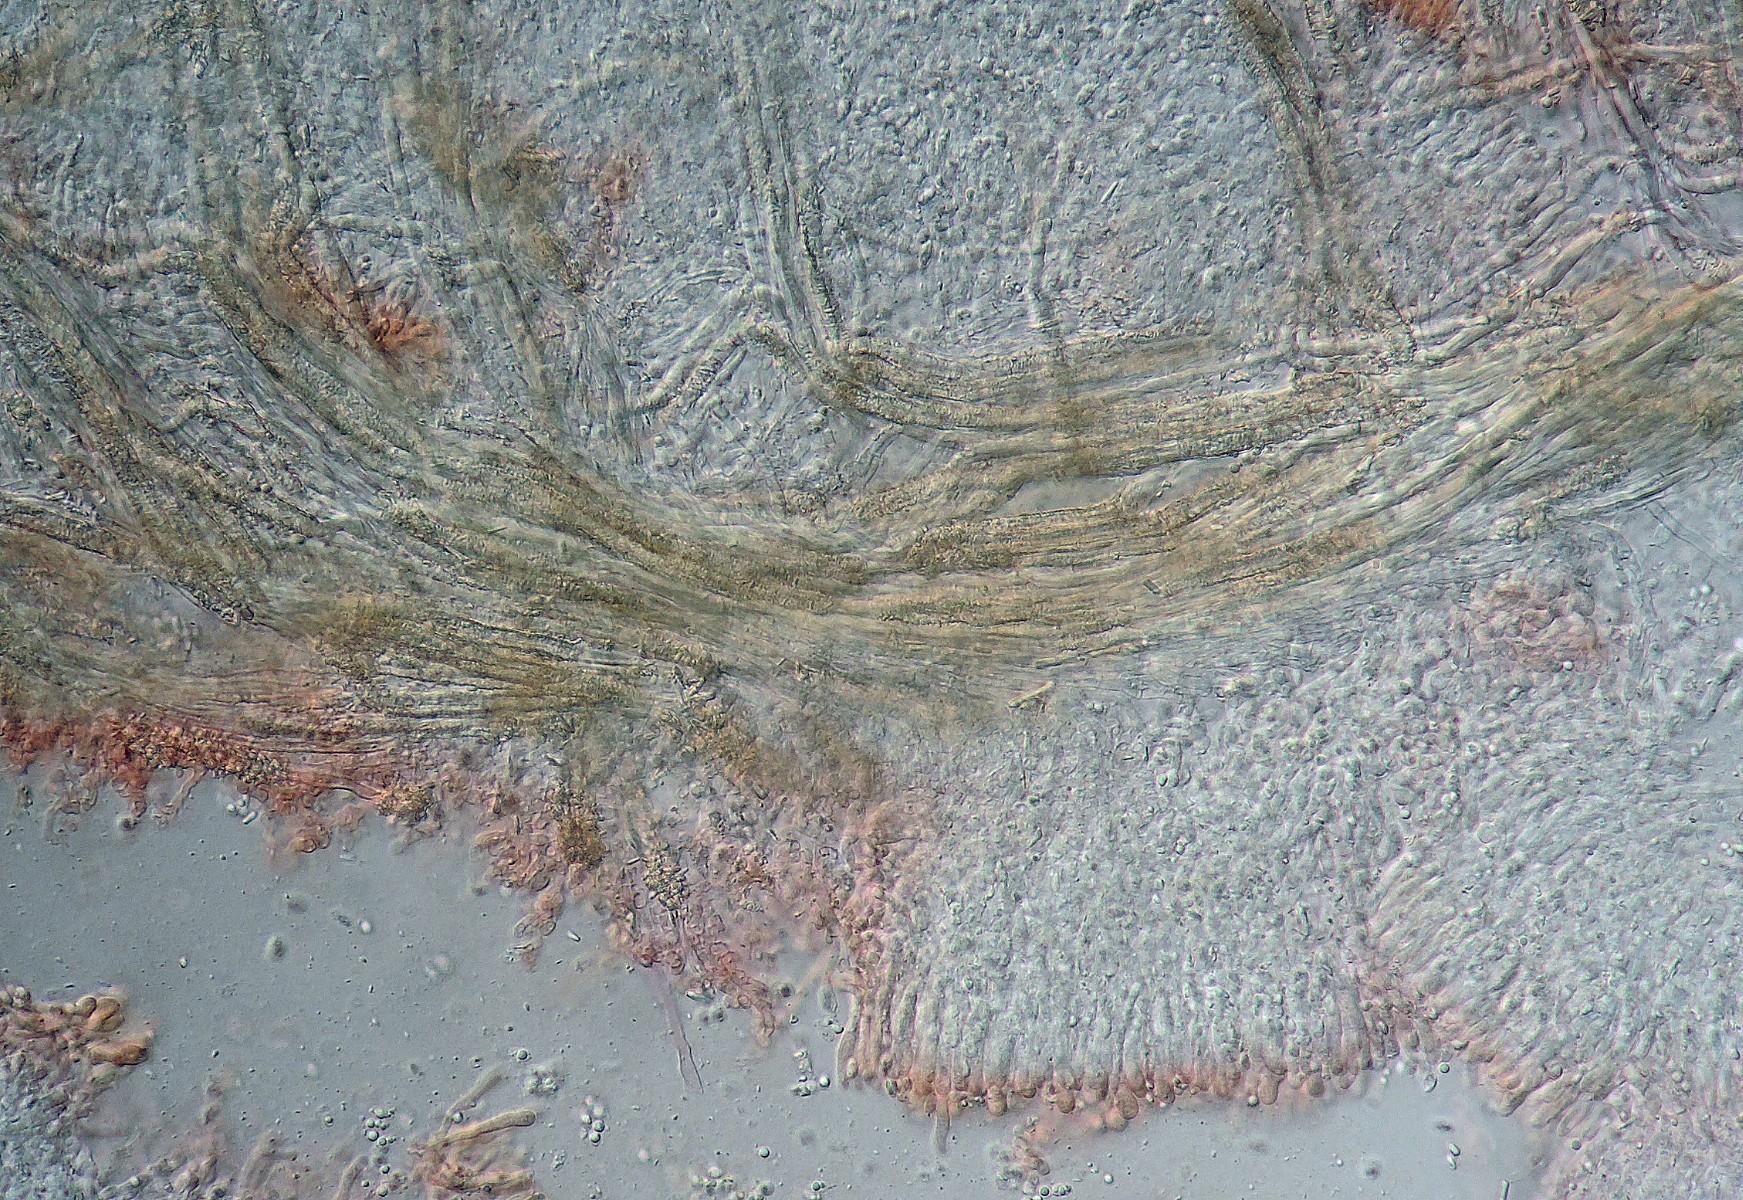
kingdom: Fungi
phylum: Basidiomycota
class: Agaricomycetes
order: Polyporales
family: Meruliaceae
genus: Mycoaciella
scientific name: Mycoaciella bispora
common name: stalaktit-vokspig
